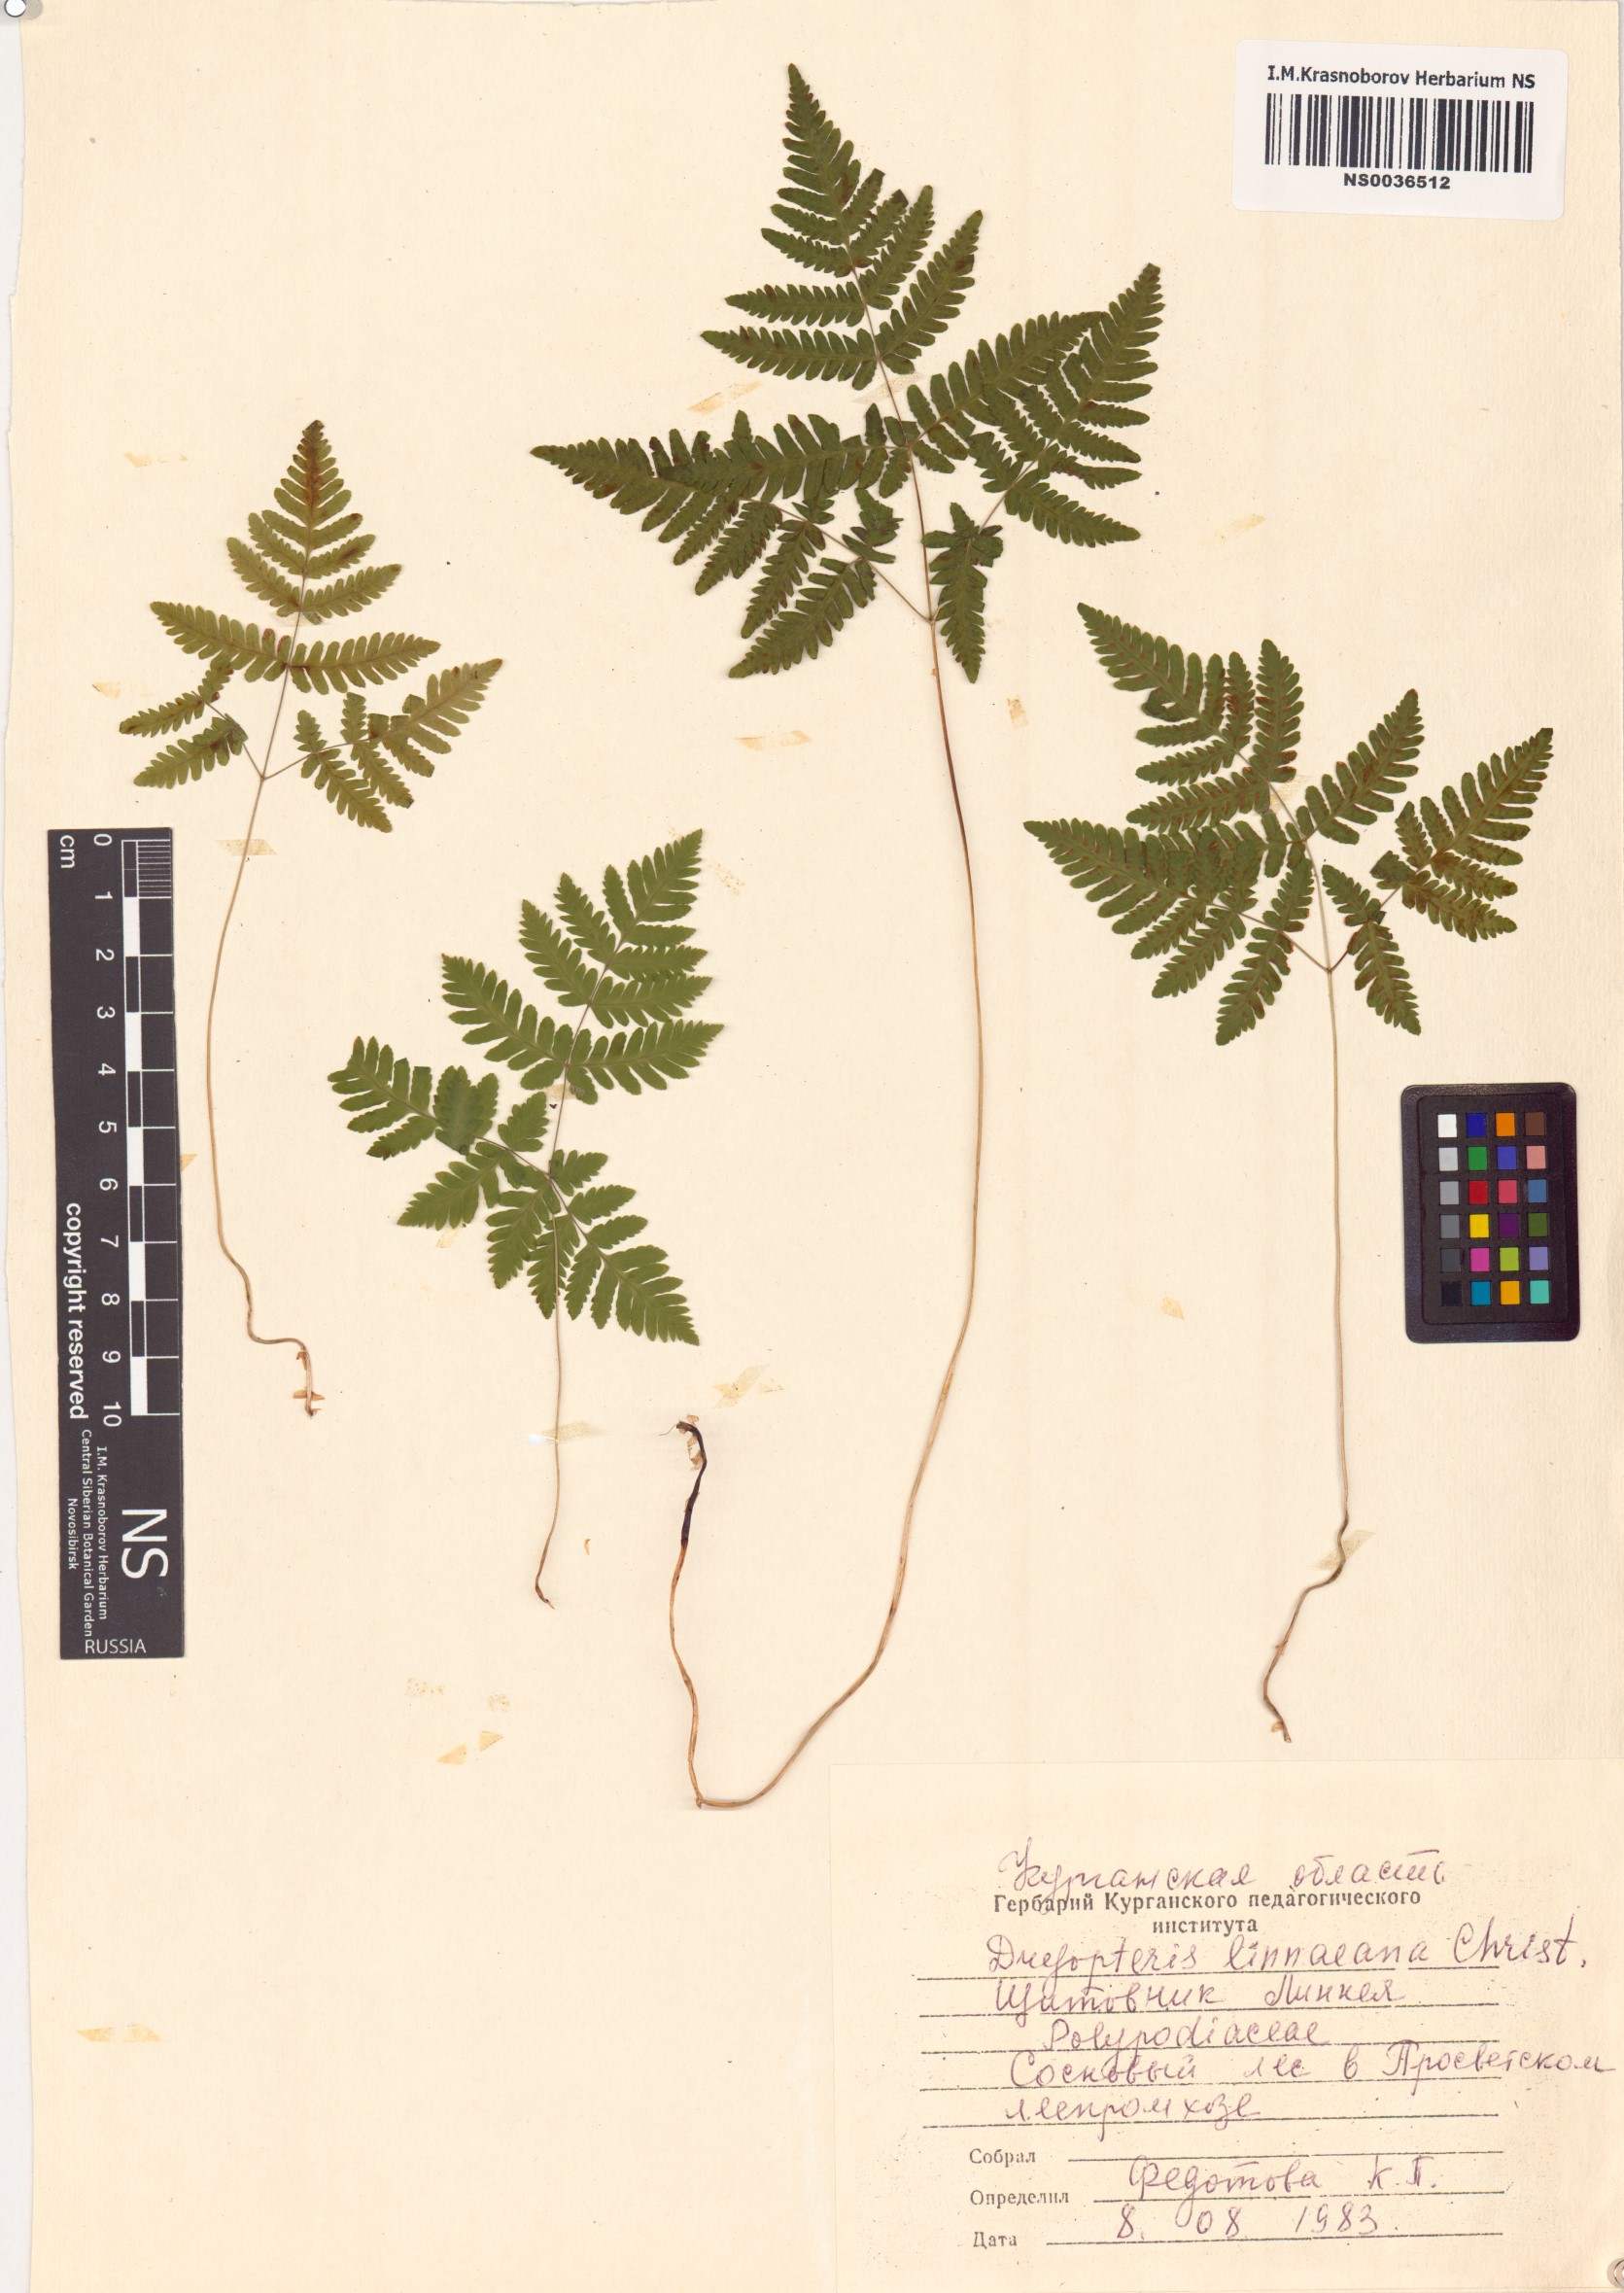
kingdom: Plantae
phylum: Tracheophyta
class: Polypodiopsida
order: Polypodiales
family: Cystopteridaceae
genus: Gymnocarpium
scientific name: Gymnocarpium dryopteris
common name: Oak fern
